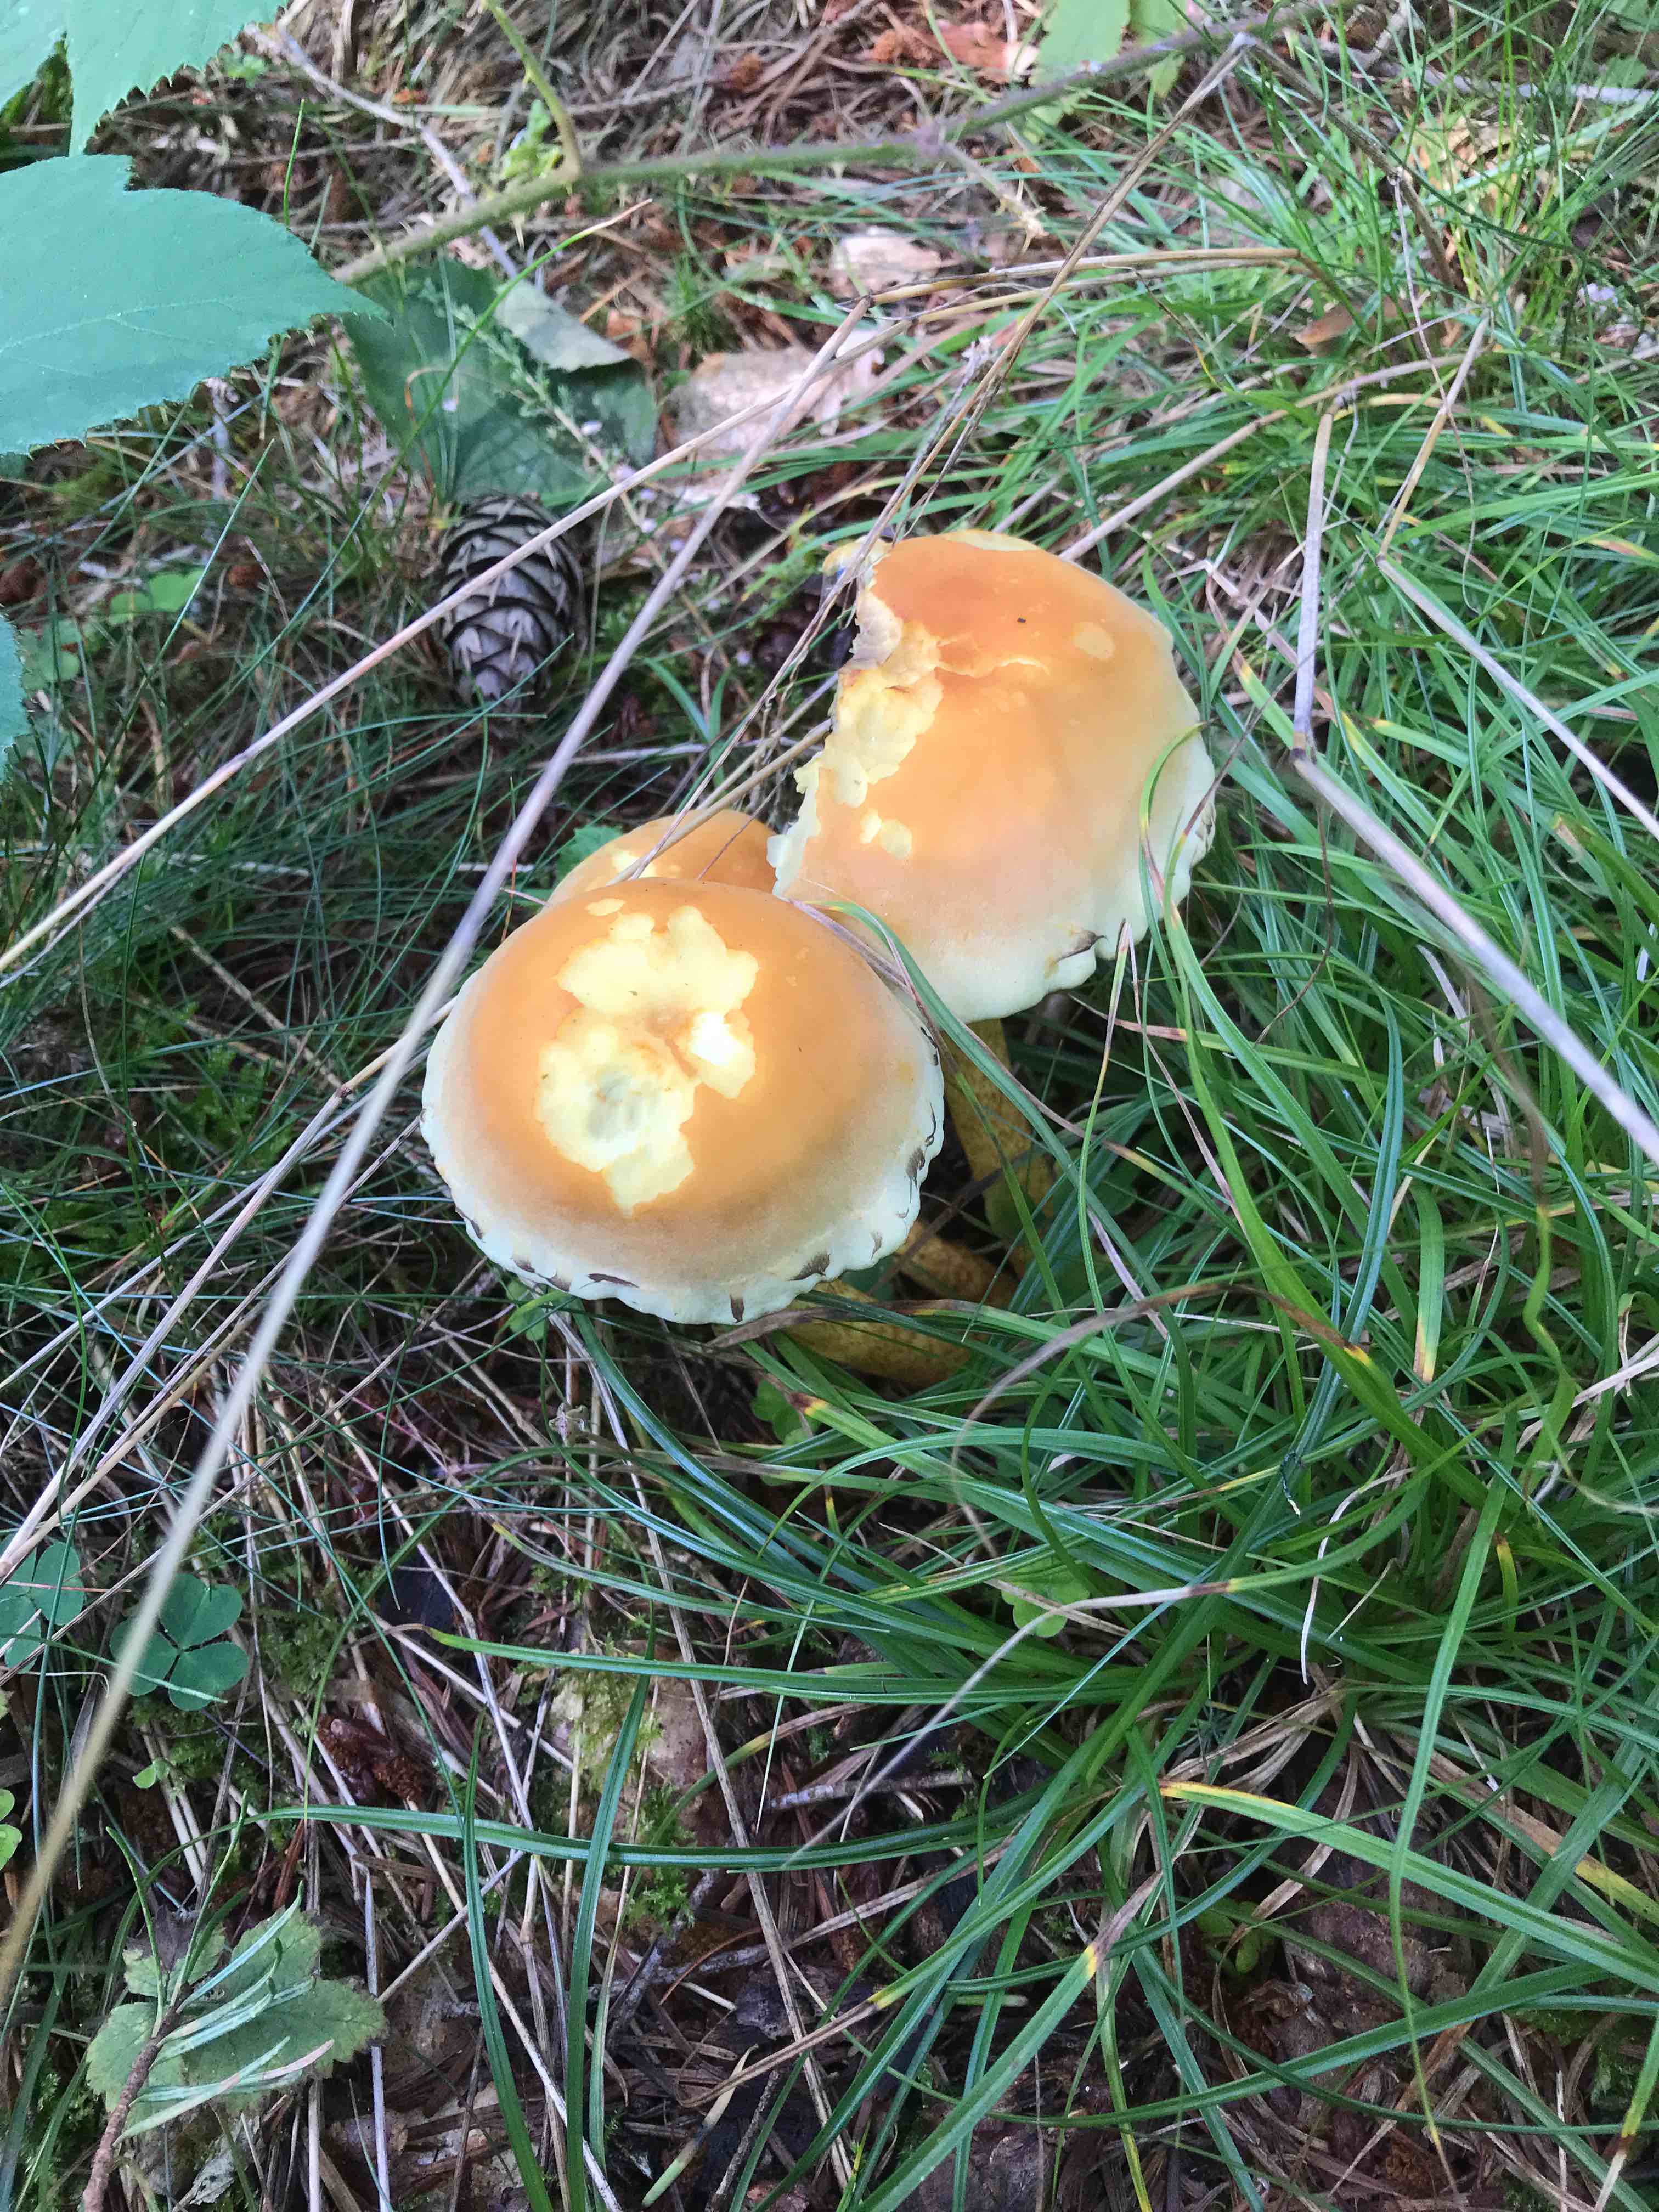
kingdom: Fungi
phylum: Basidiomycota
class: Agaricomycetes
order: Agaricales
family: Strophariaceae
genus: Hypholoma
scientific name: Hypholoma fasciculare
